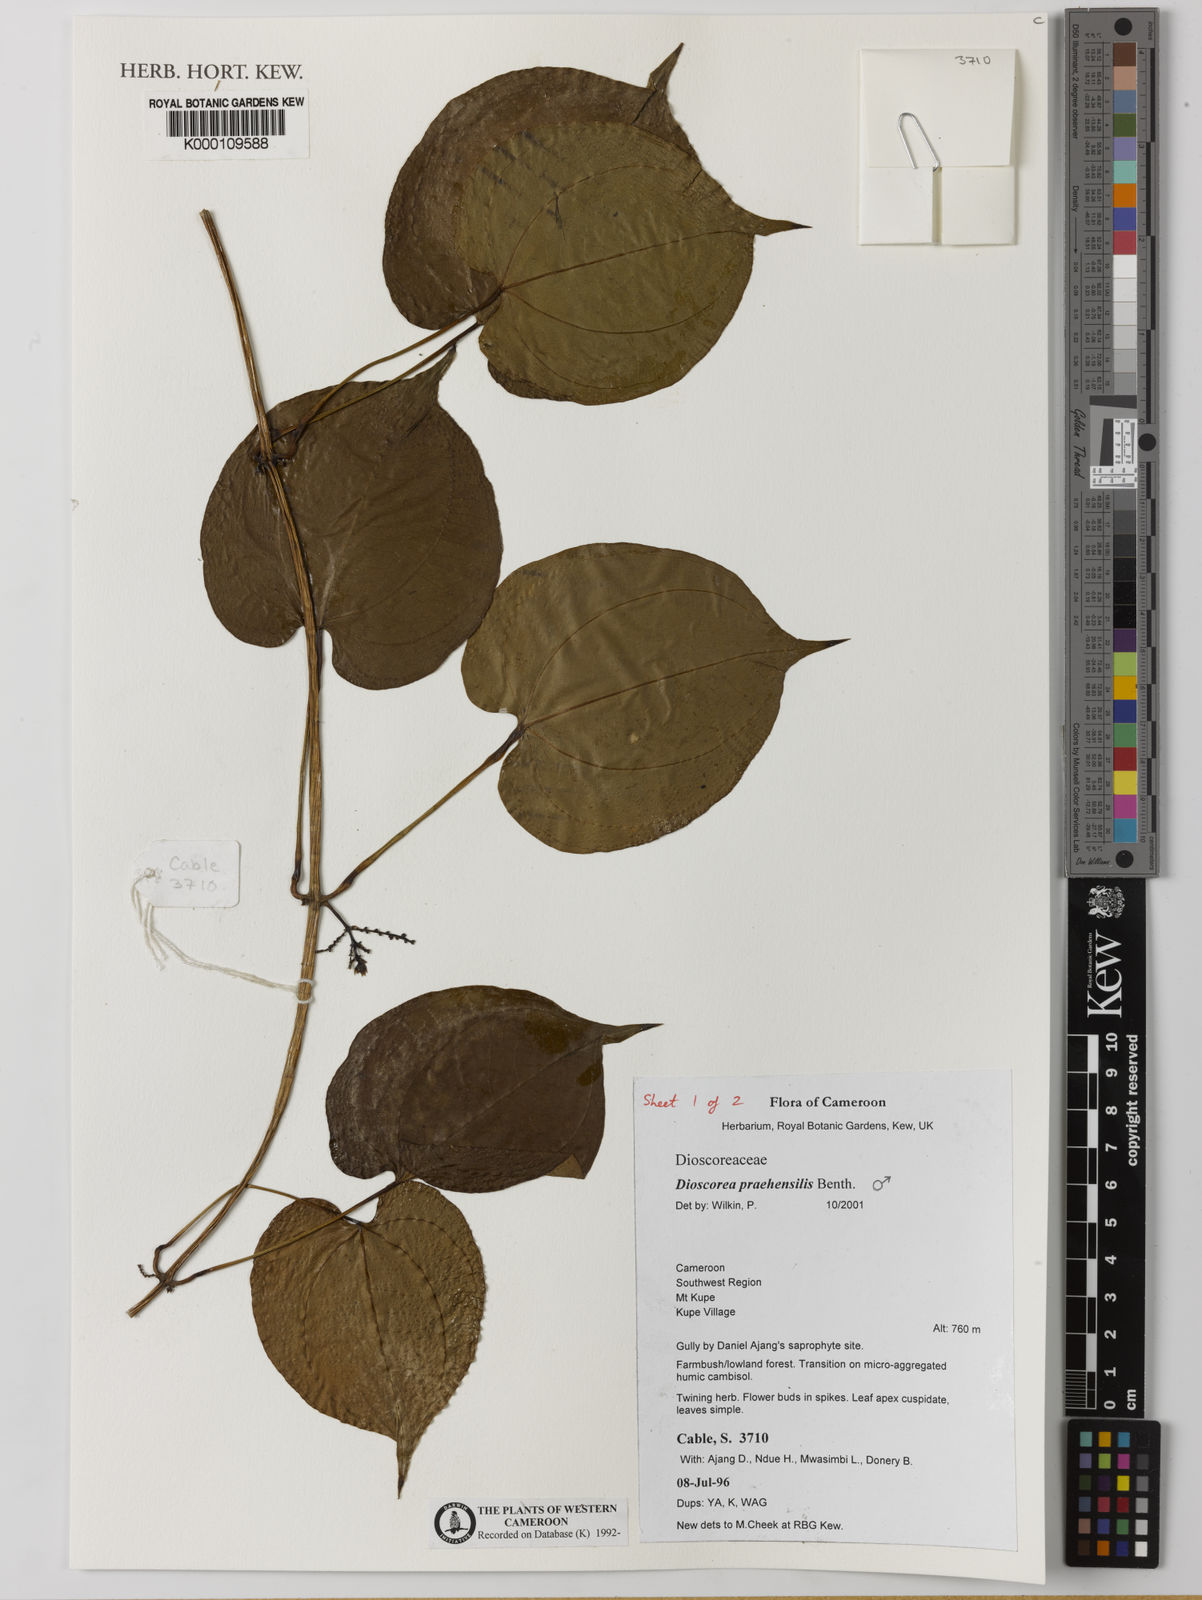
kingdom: Plantae
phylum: Tracheophyta
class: Liliopsida
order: Dioscoreales
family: Dioscoreaceae
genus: Dioscorea
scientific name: Dioscorea praehensilis
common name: Bush yam
